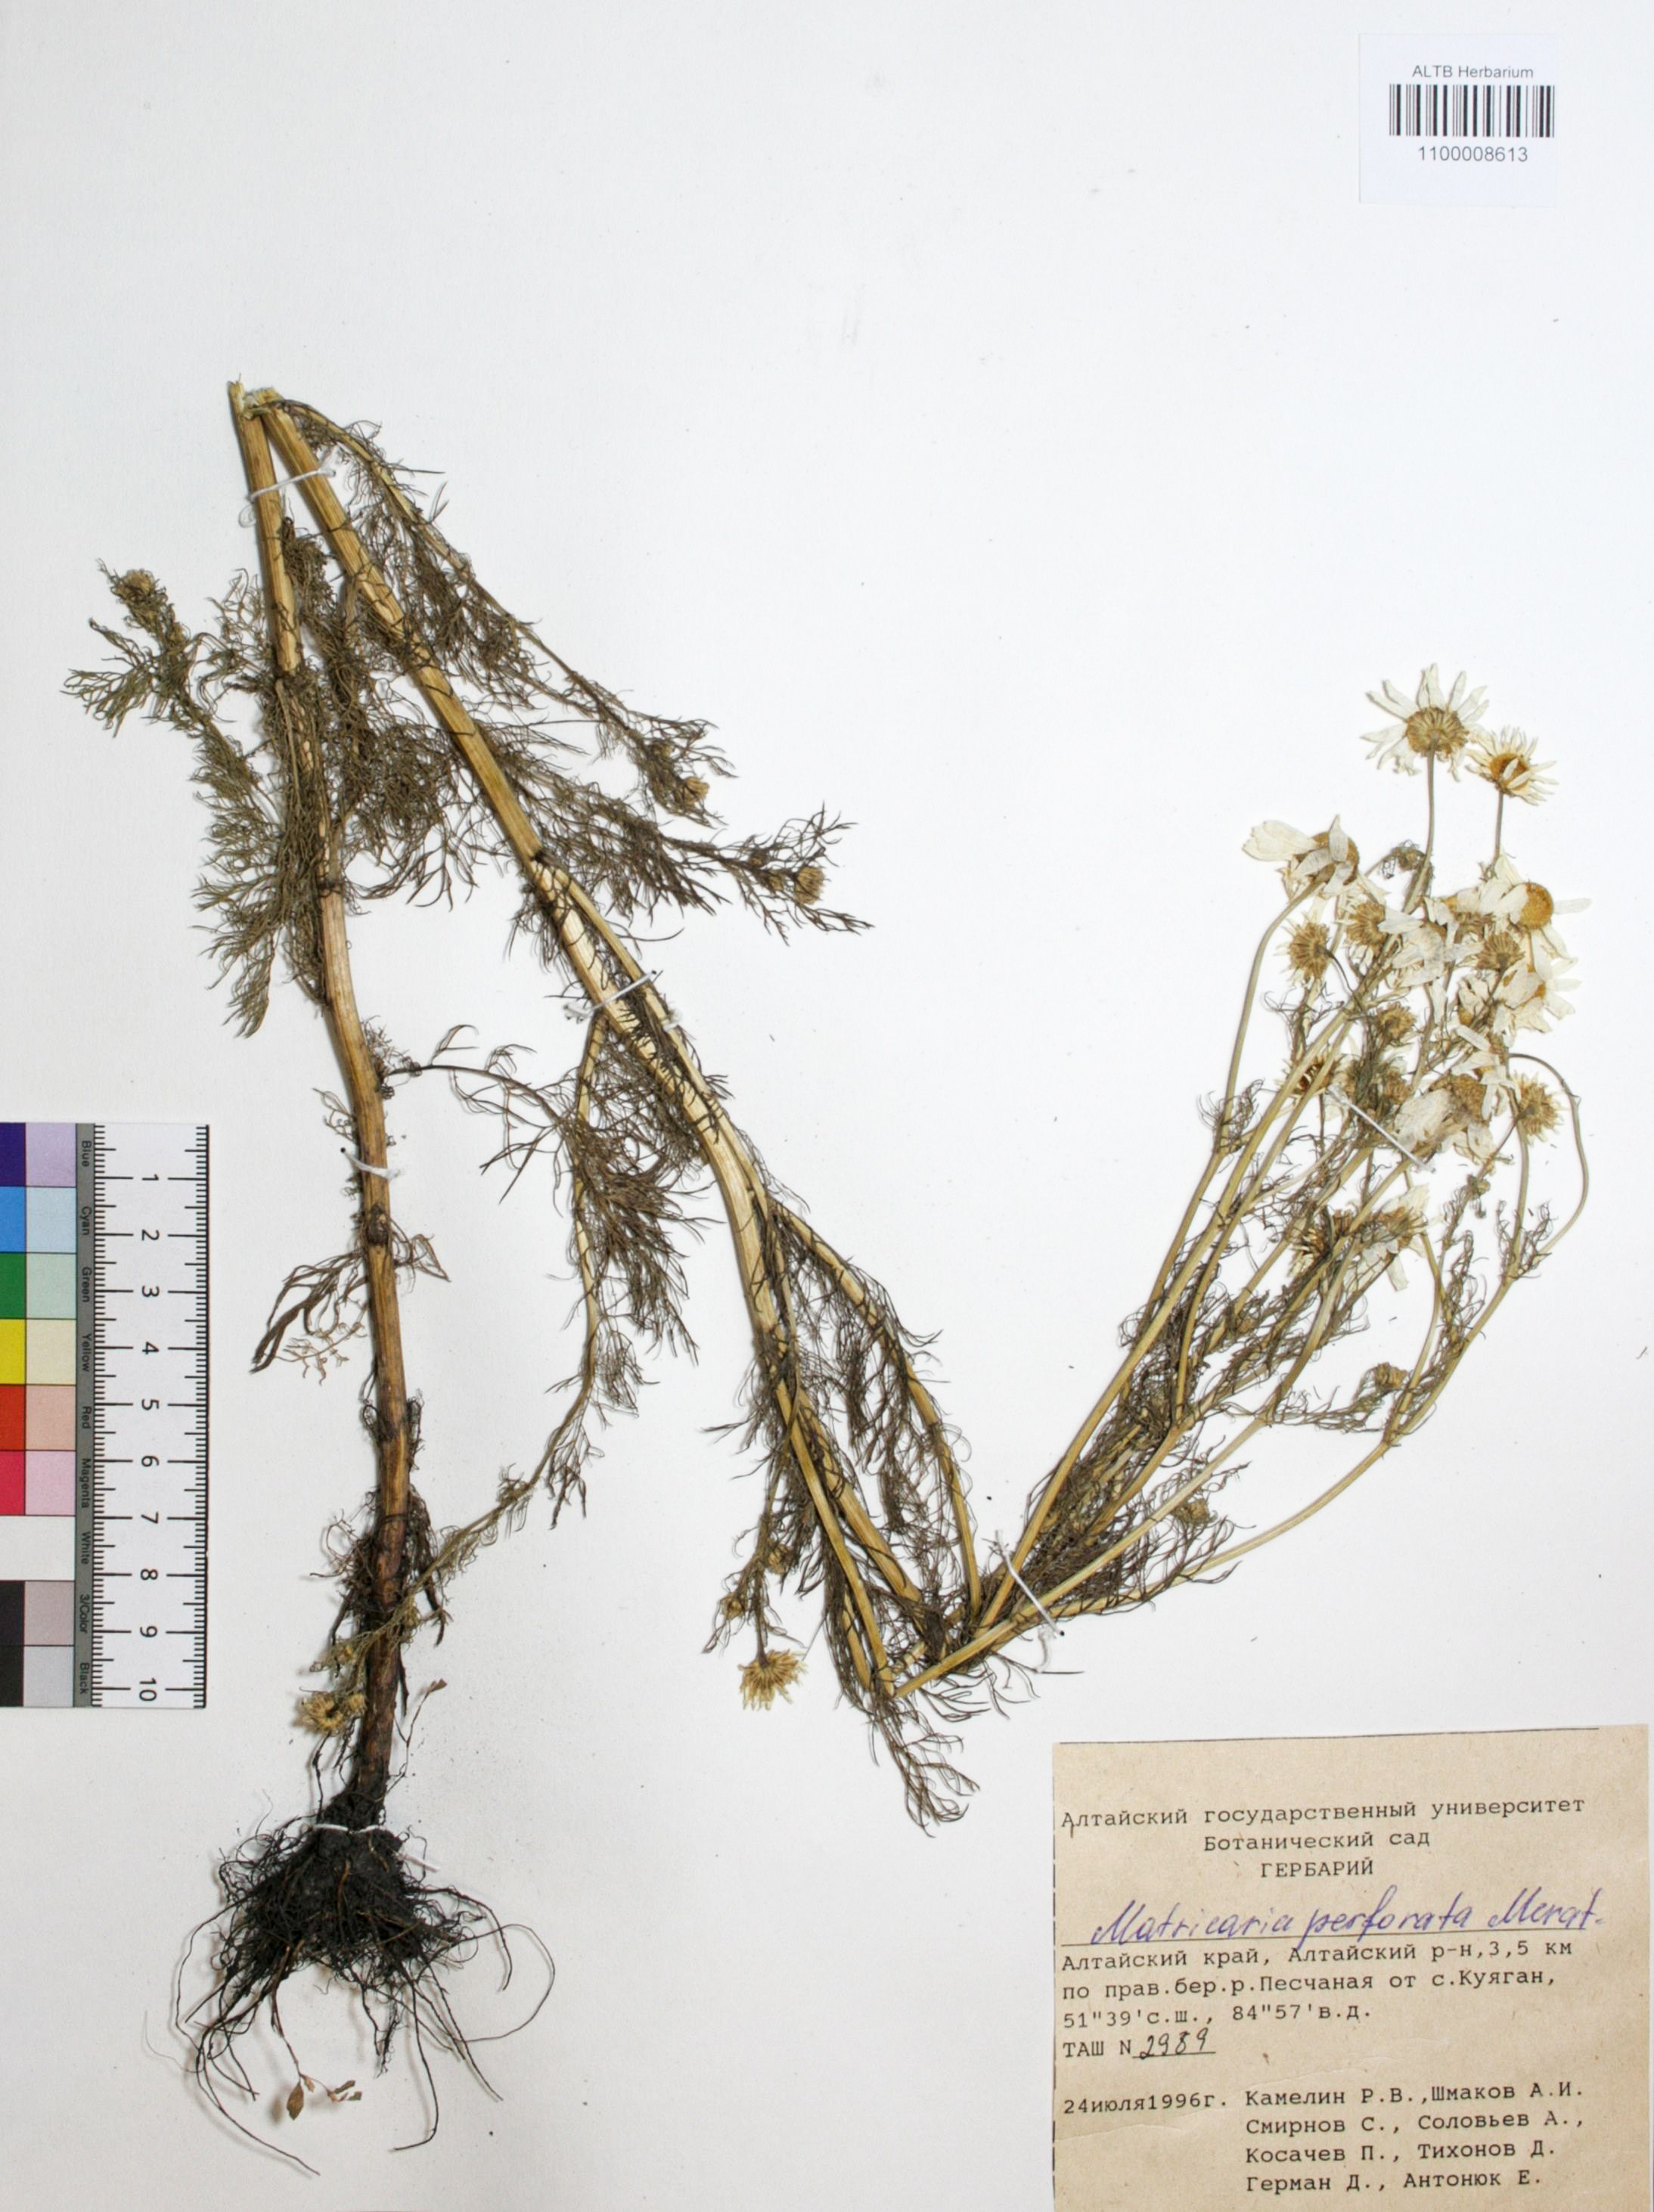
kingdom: Plantae
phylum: Tracheophyta
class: Magnoliopsida
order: Asterales
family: Asteraceae
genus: Tripleurospermum
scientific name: Tripleurospermum inodorum
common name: Scentless mayweed
